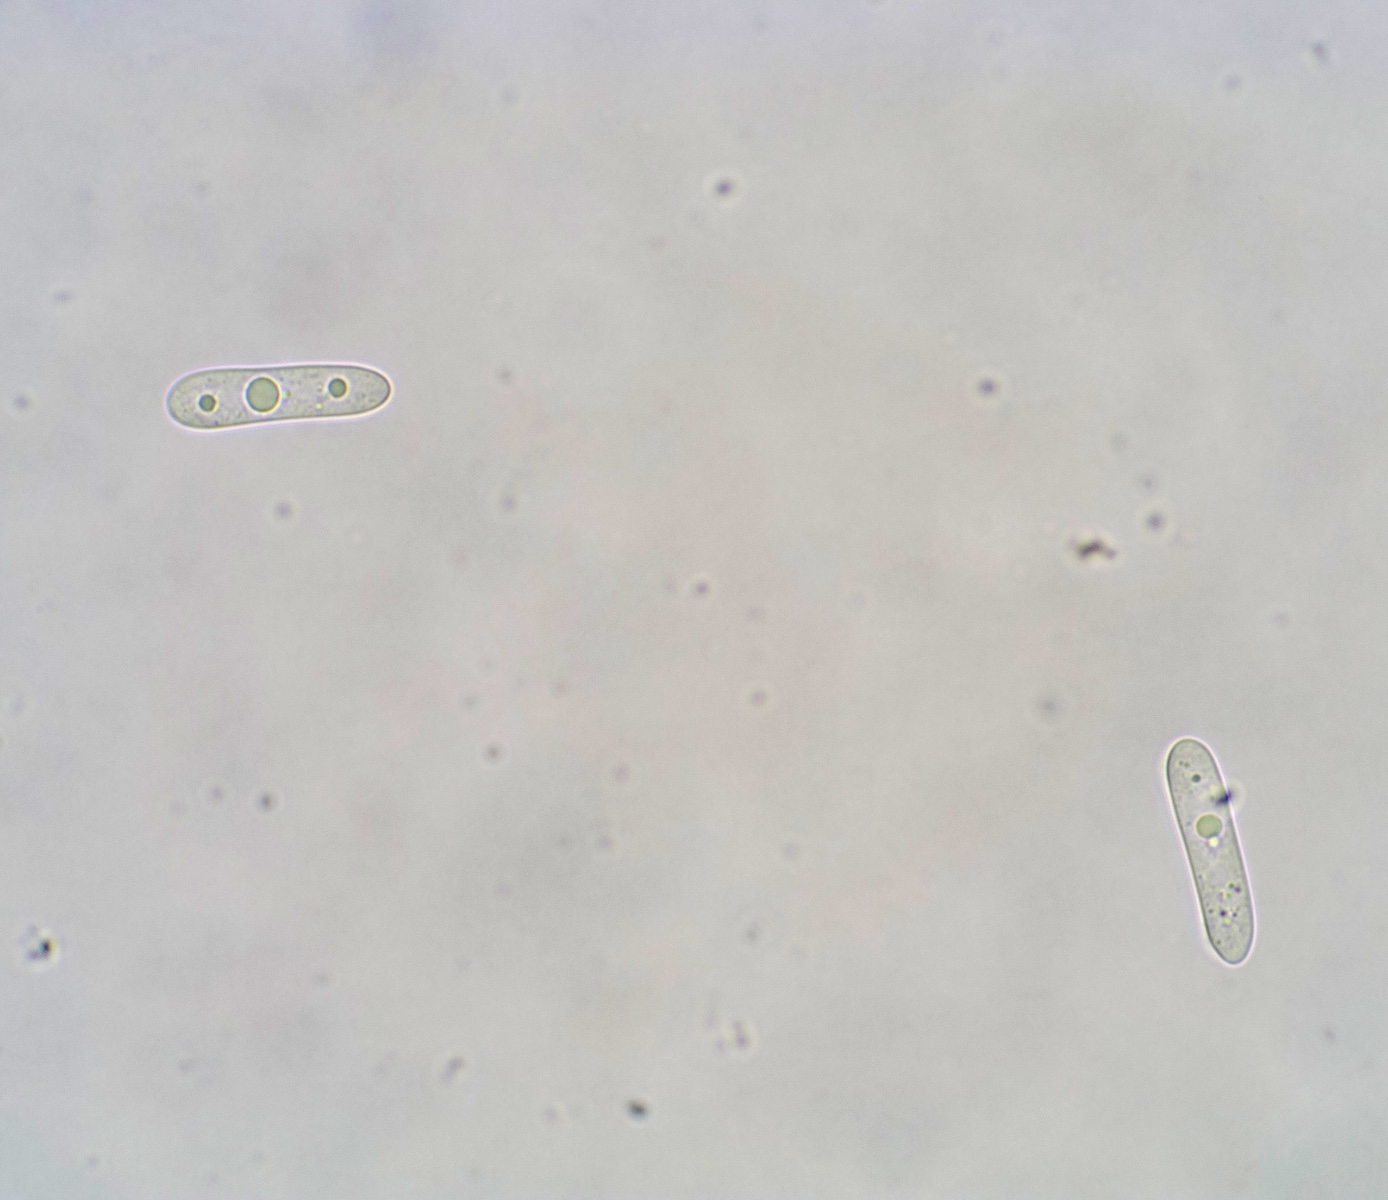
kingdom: Fungi
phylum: Ascomycota
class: Dothideomycetes
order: Botryosphaeriales
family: Botryosphaeriaceae
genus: Dothiora
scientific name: Dothiora oleae
